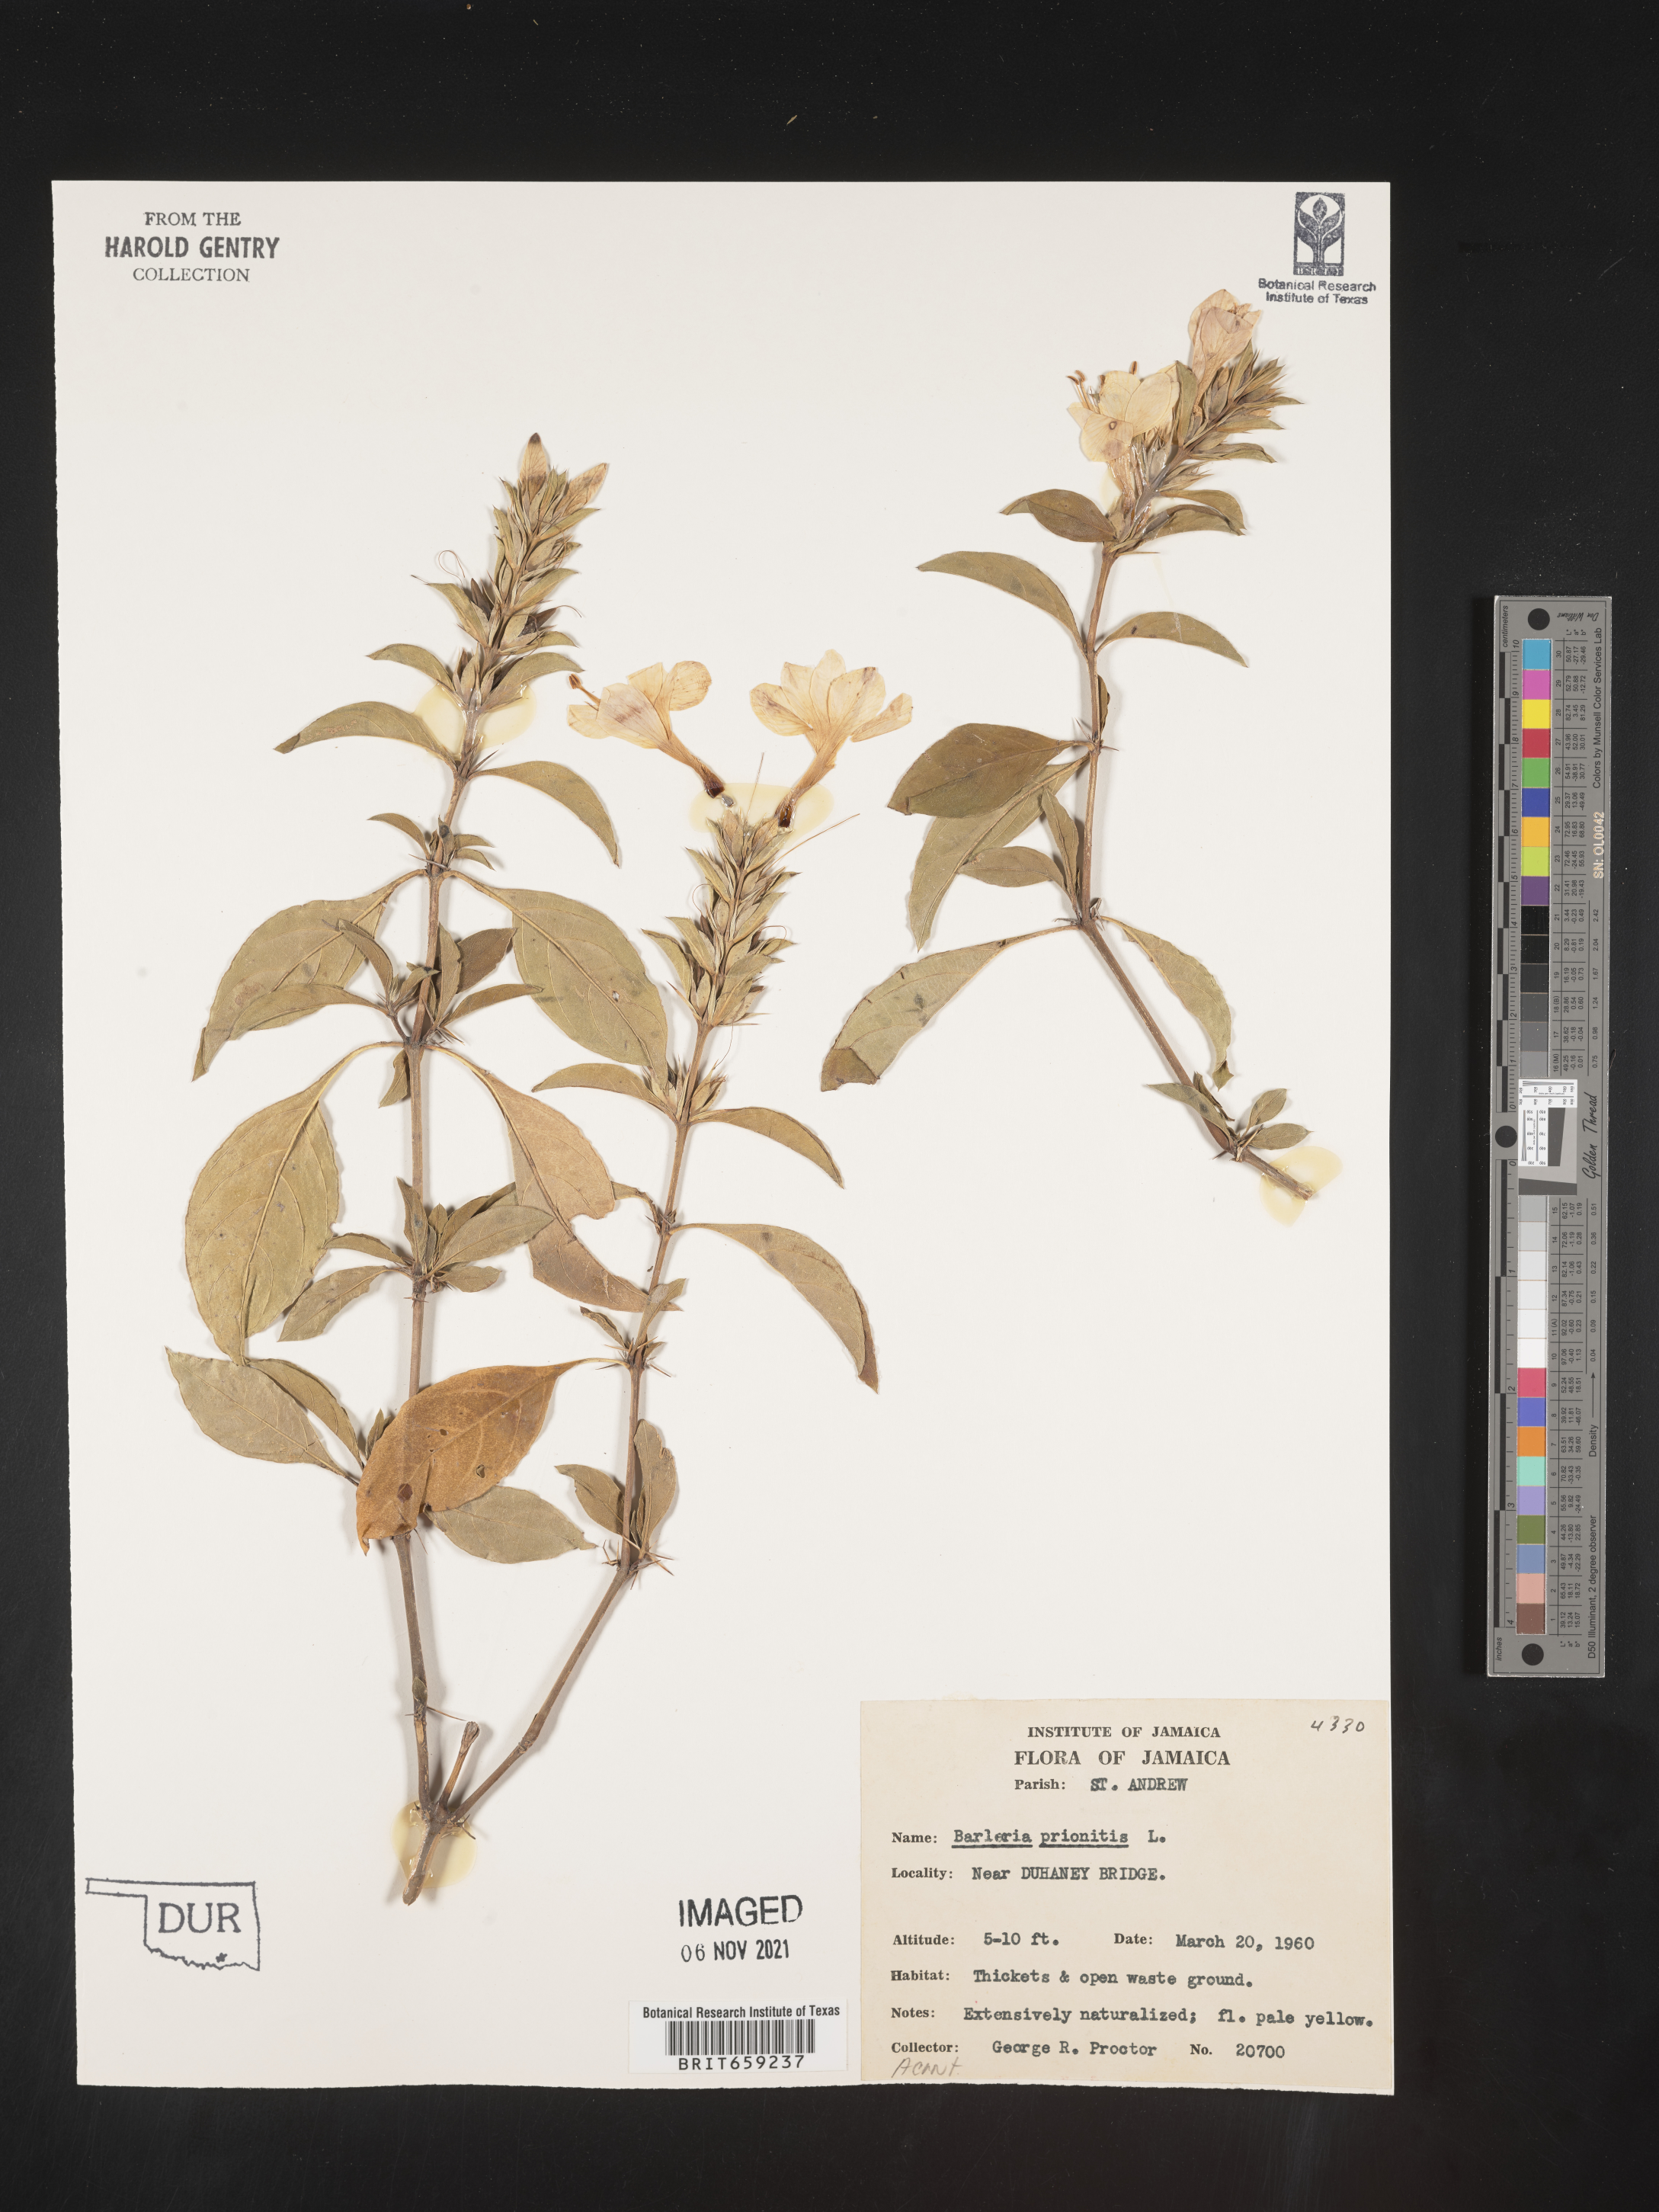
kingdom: Plantae
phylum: Tracheophyta
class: Magnoliopsida
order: Lamiales
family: Acanthaceae
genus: Barleria
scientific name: Barleria
